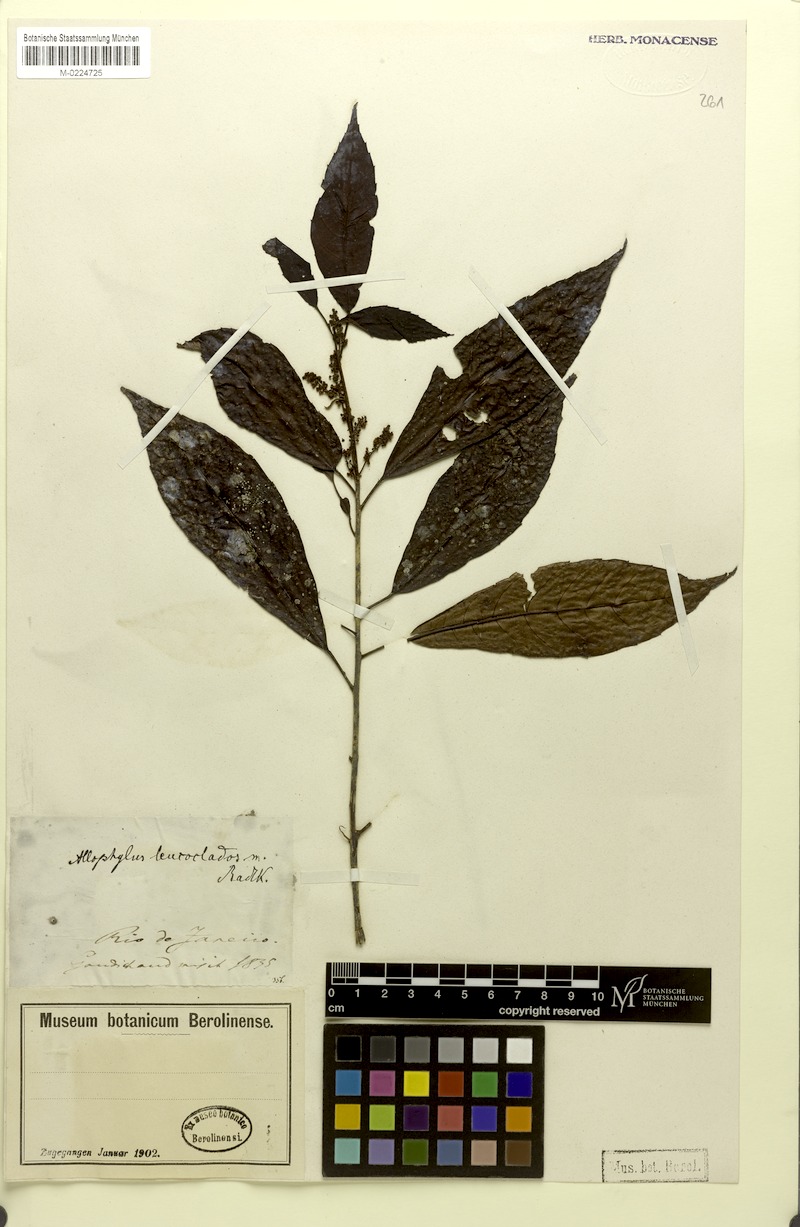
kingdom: Plantae
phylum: Tracheophyta
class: Magnoliopsida
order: Sapindales
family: Sapindaceae
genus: Allophylus
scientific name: Allophylus leucochrous
